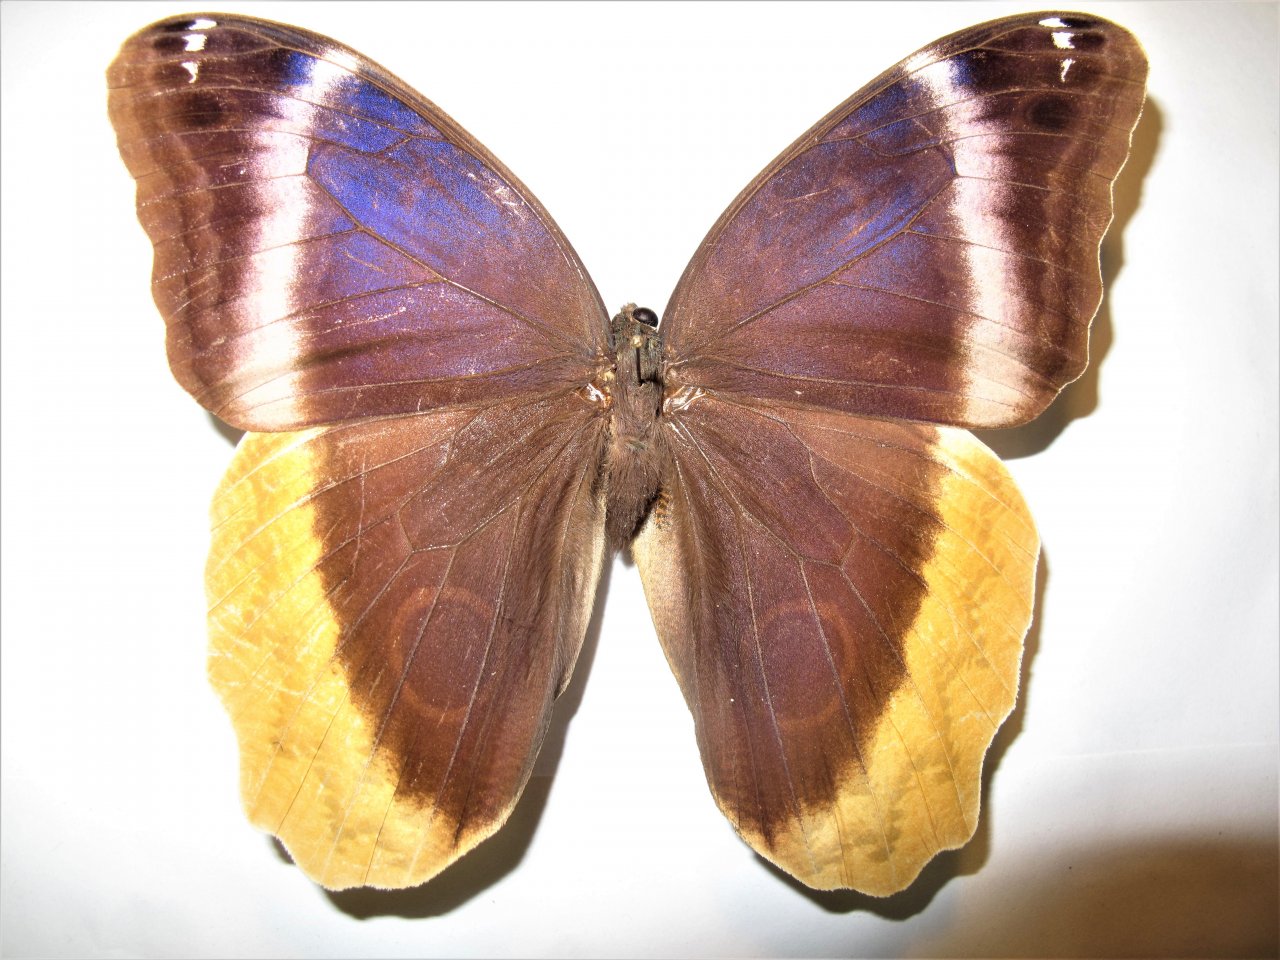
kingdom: Animalia
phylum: Arthropoda
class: Insecta
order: Lepidoptera
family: Nymphalidae
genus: Caligo
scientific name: Caligo uranus
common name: Gold-edged Owl-Butterfly
